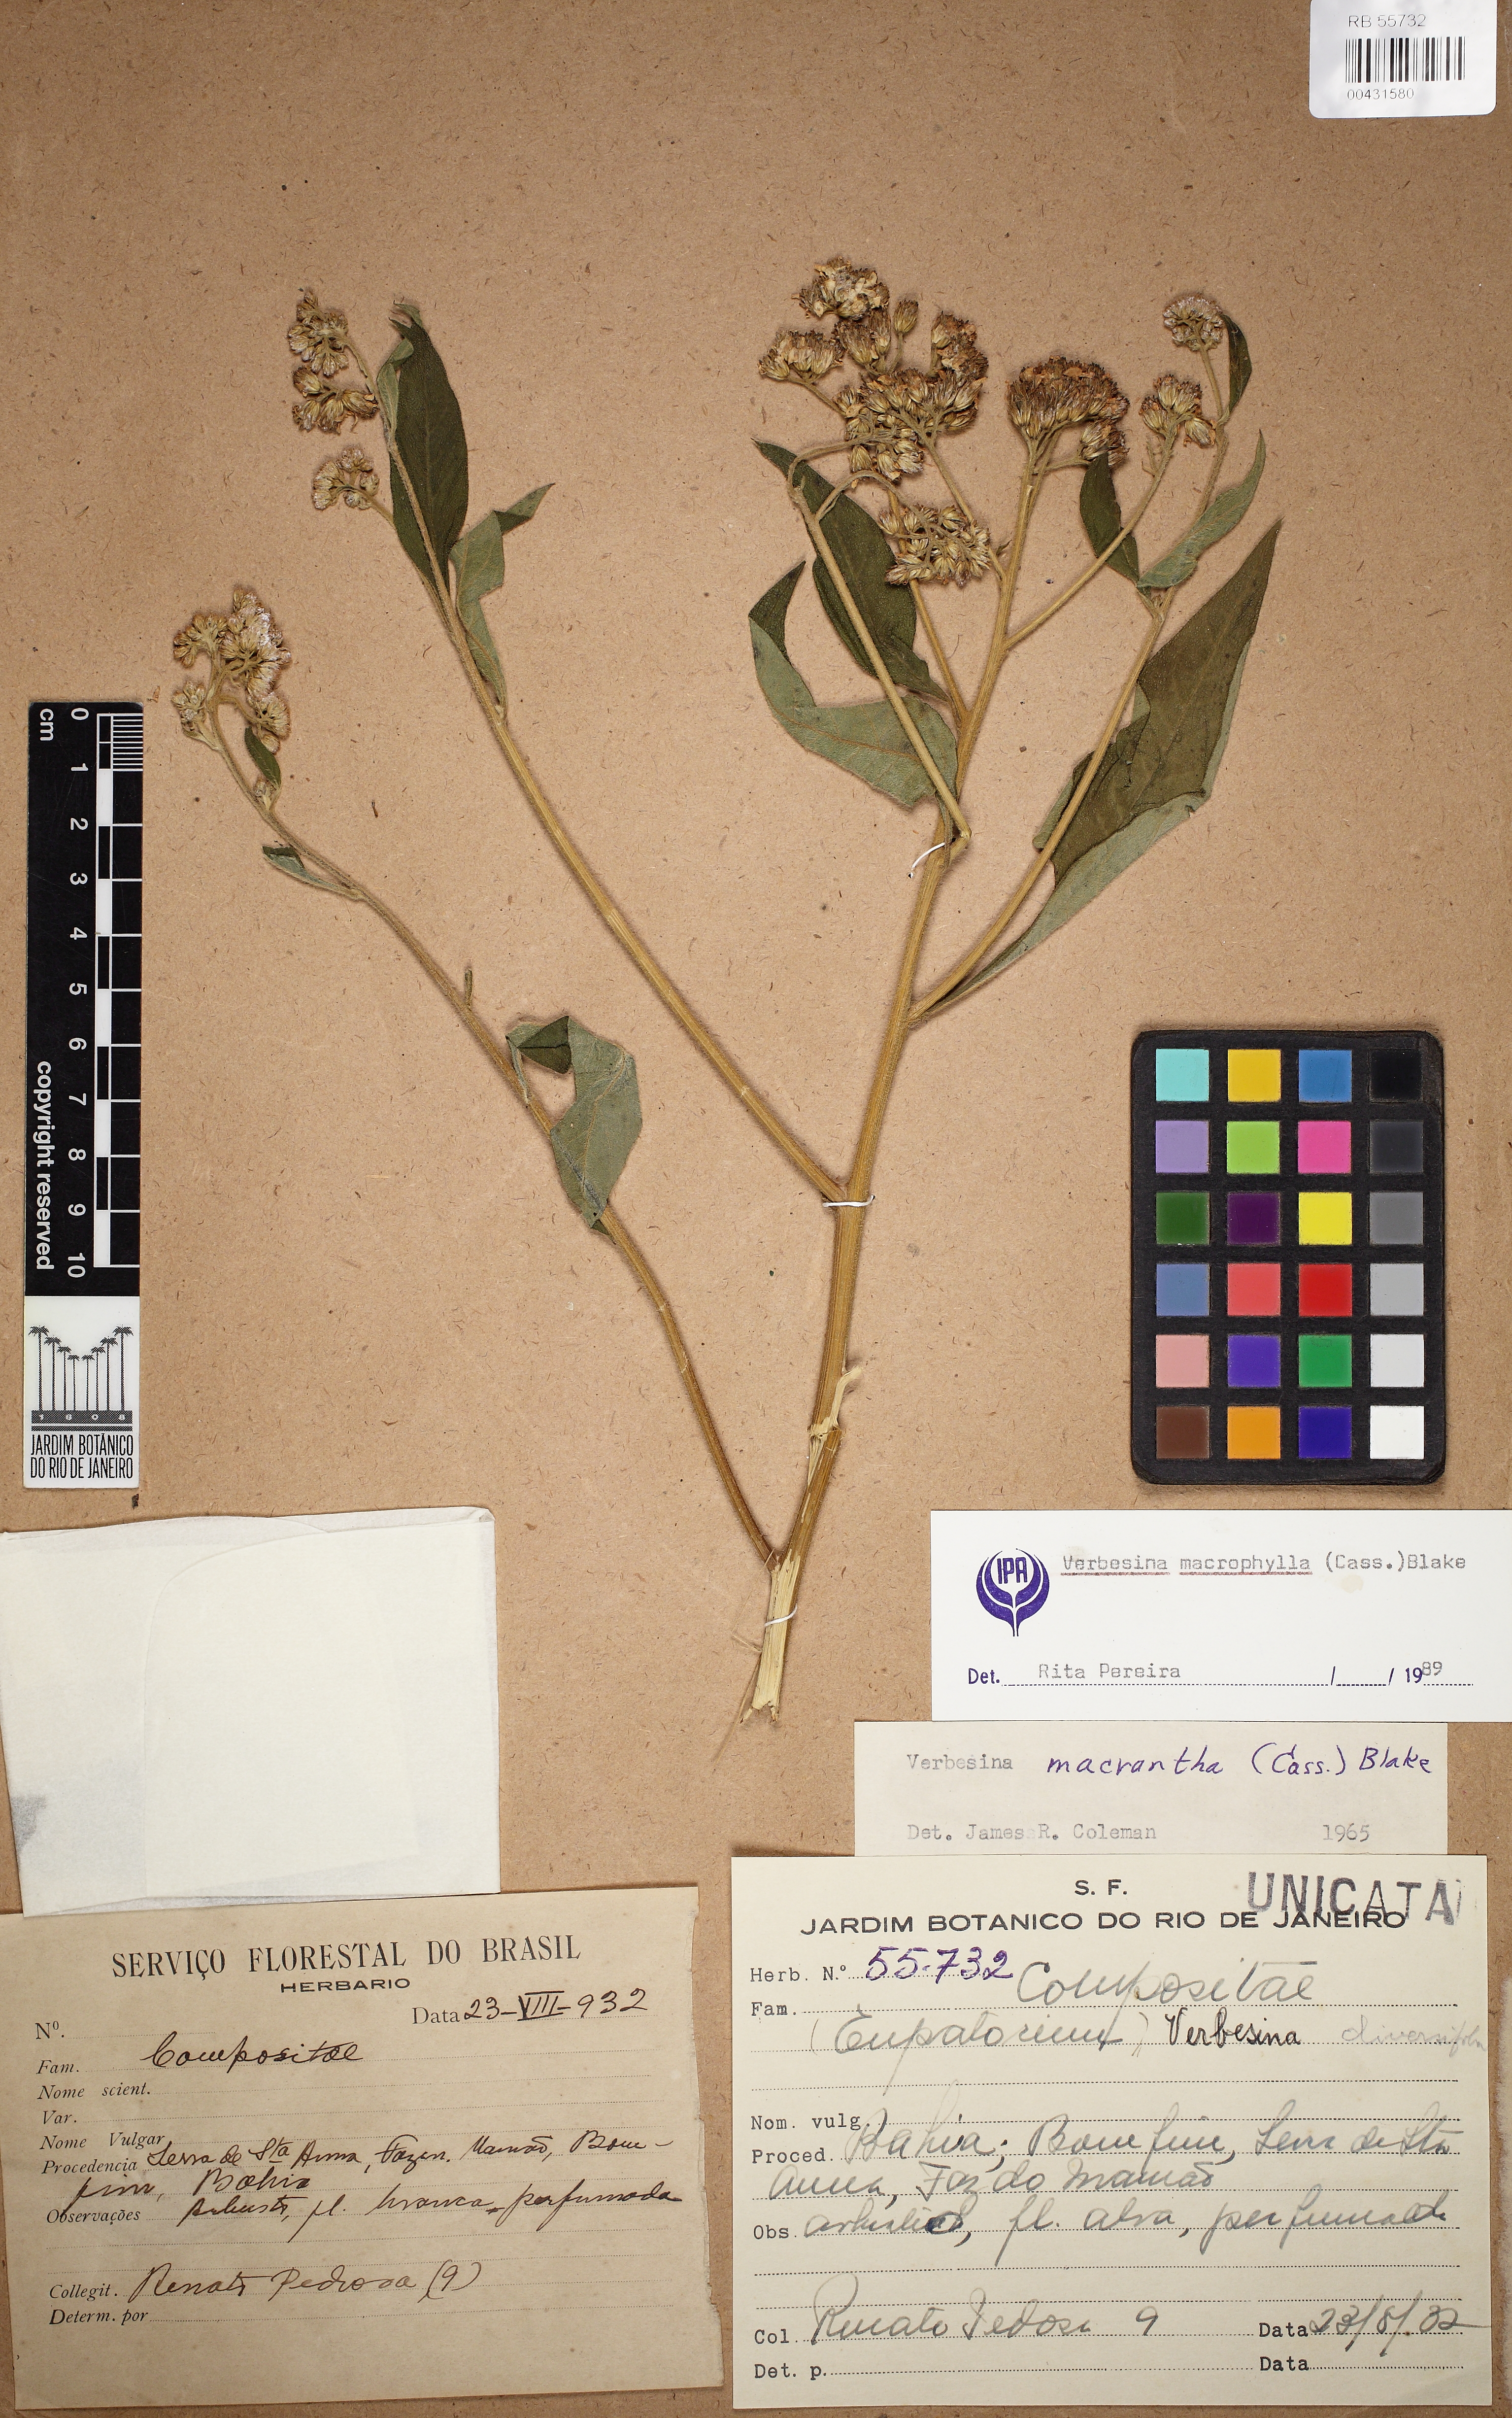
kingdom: Plantae
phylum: Tracheophyta
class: Magnoliopsida
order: Asterales
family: Asteraceae
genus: Verbesina
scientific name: Verbesina macrophylla
